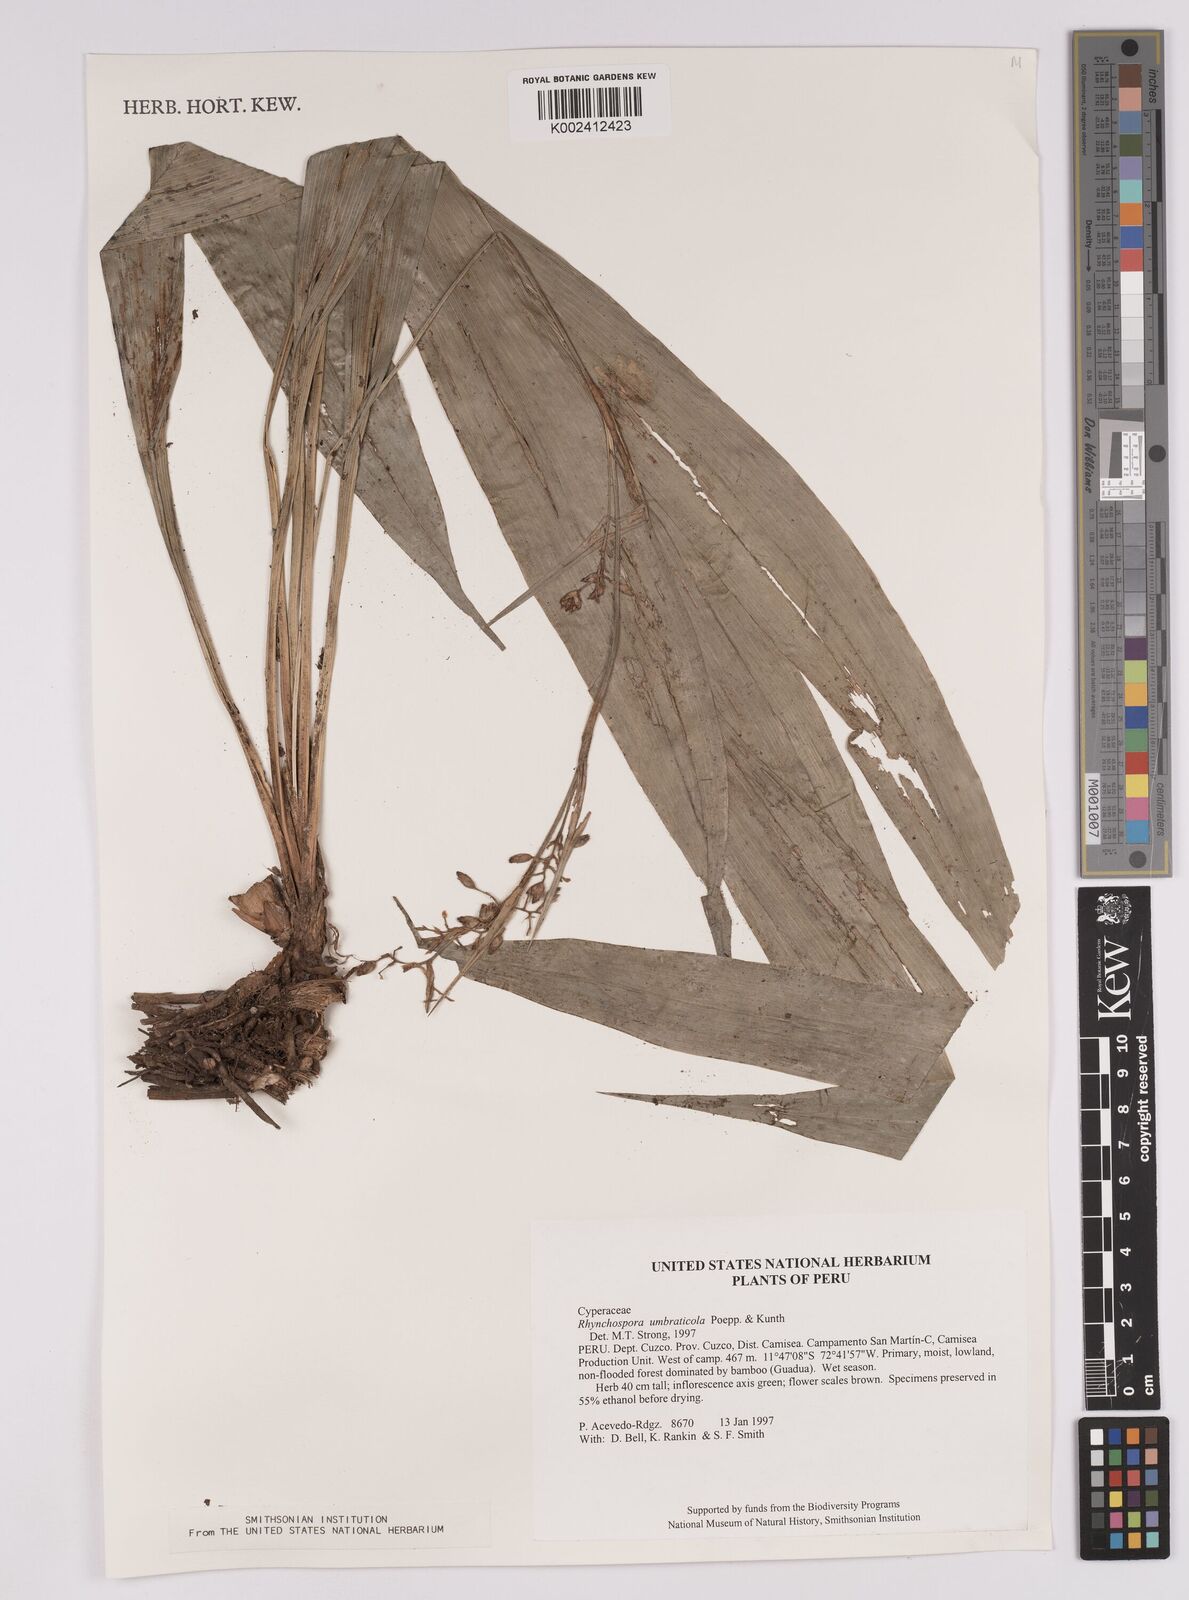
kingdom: Plantae
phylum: Tracheophyta
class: Liliopsida
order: Poales
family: Cyperaceae
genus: Rhynchospora
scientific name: Rhynchospora umbraticola
